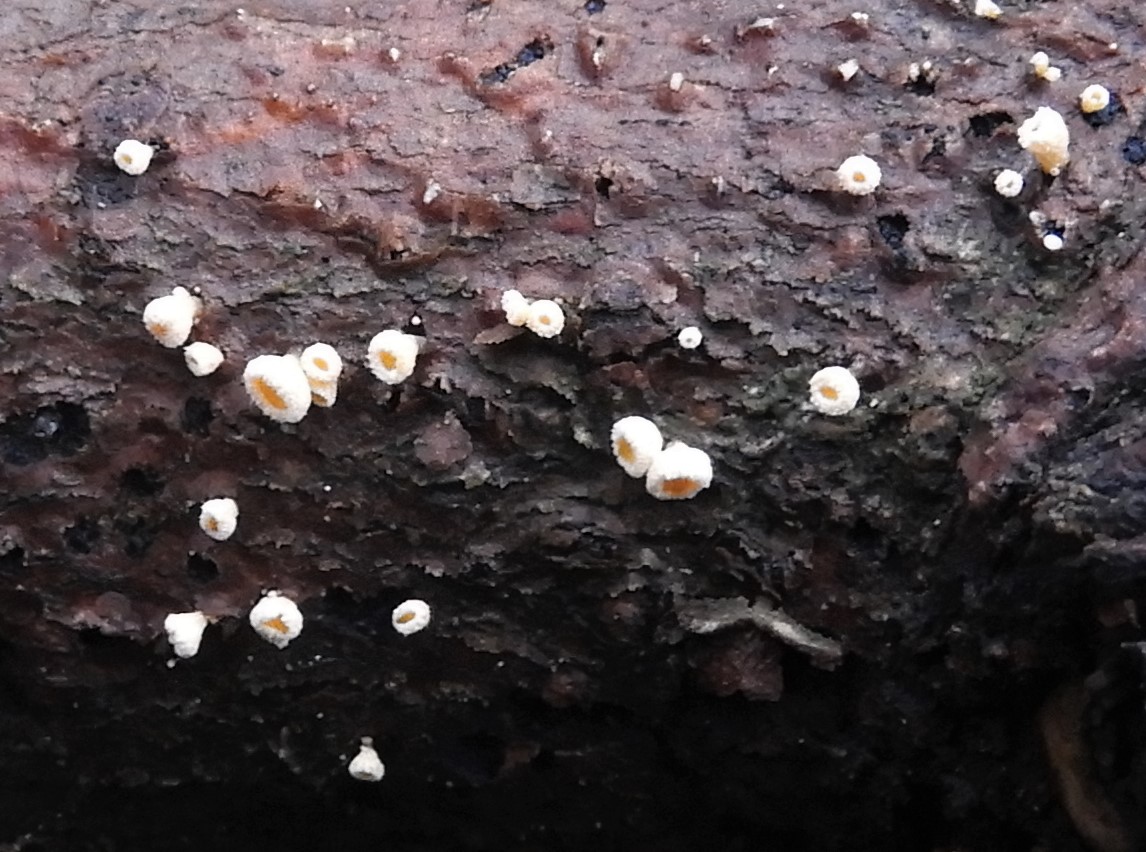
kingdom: Fungi
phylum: Ascomycota
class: Leotiomycetes
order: Helotiales
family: Lachnaceae
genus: Lachnellula
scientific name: Lachnellula
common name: frynseskive
